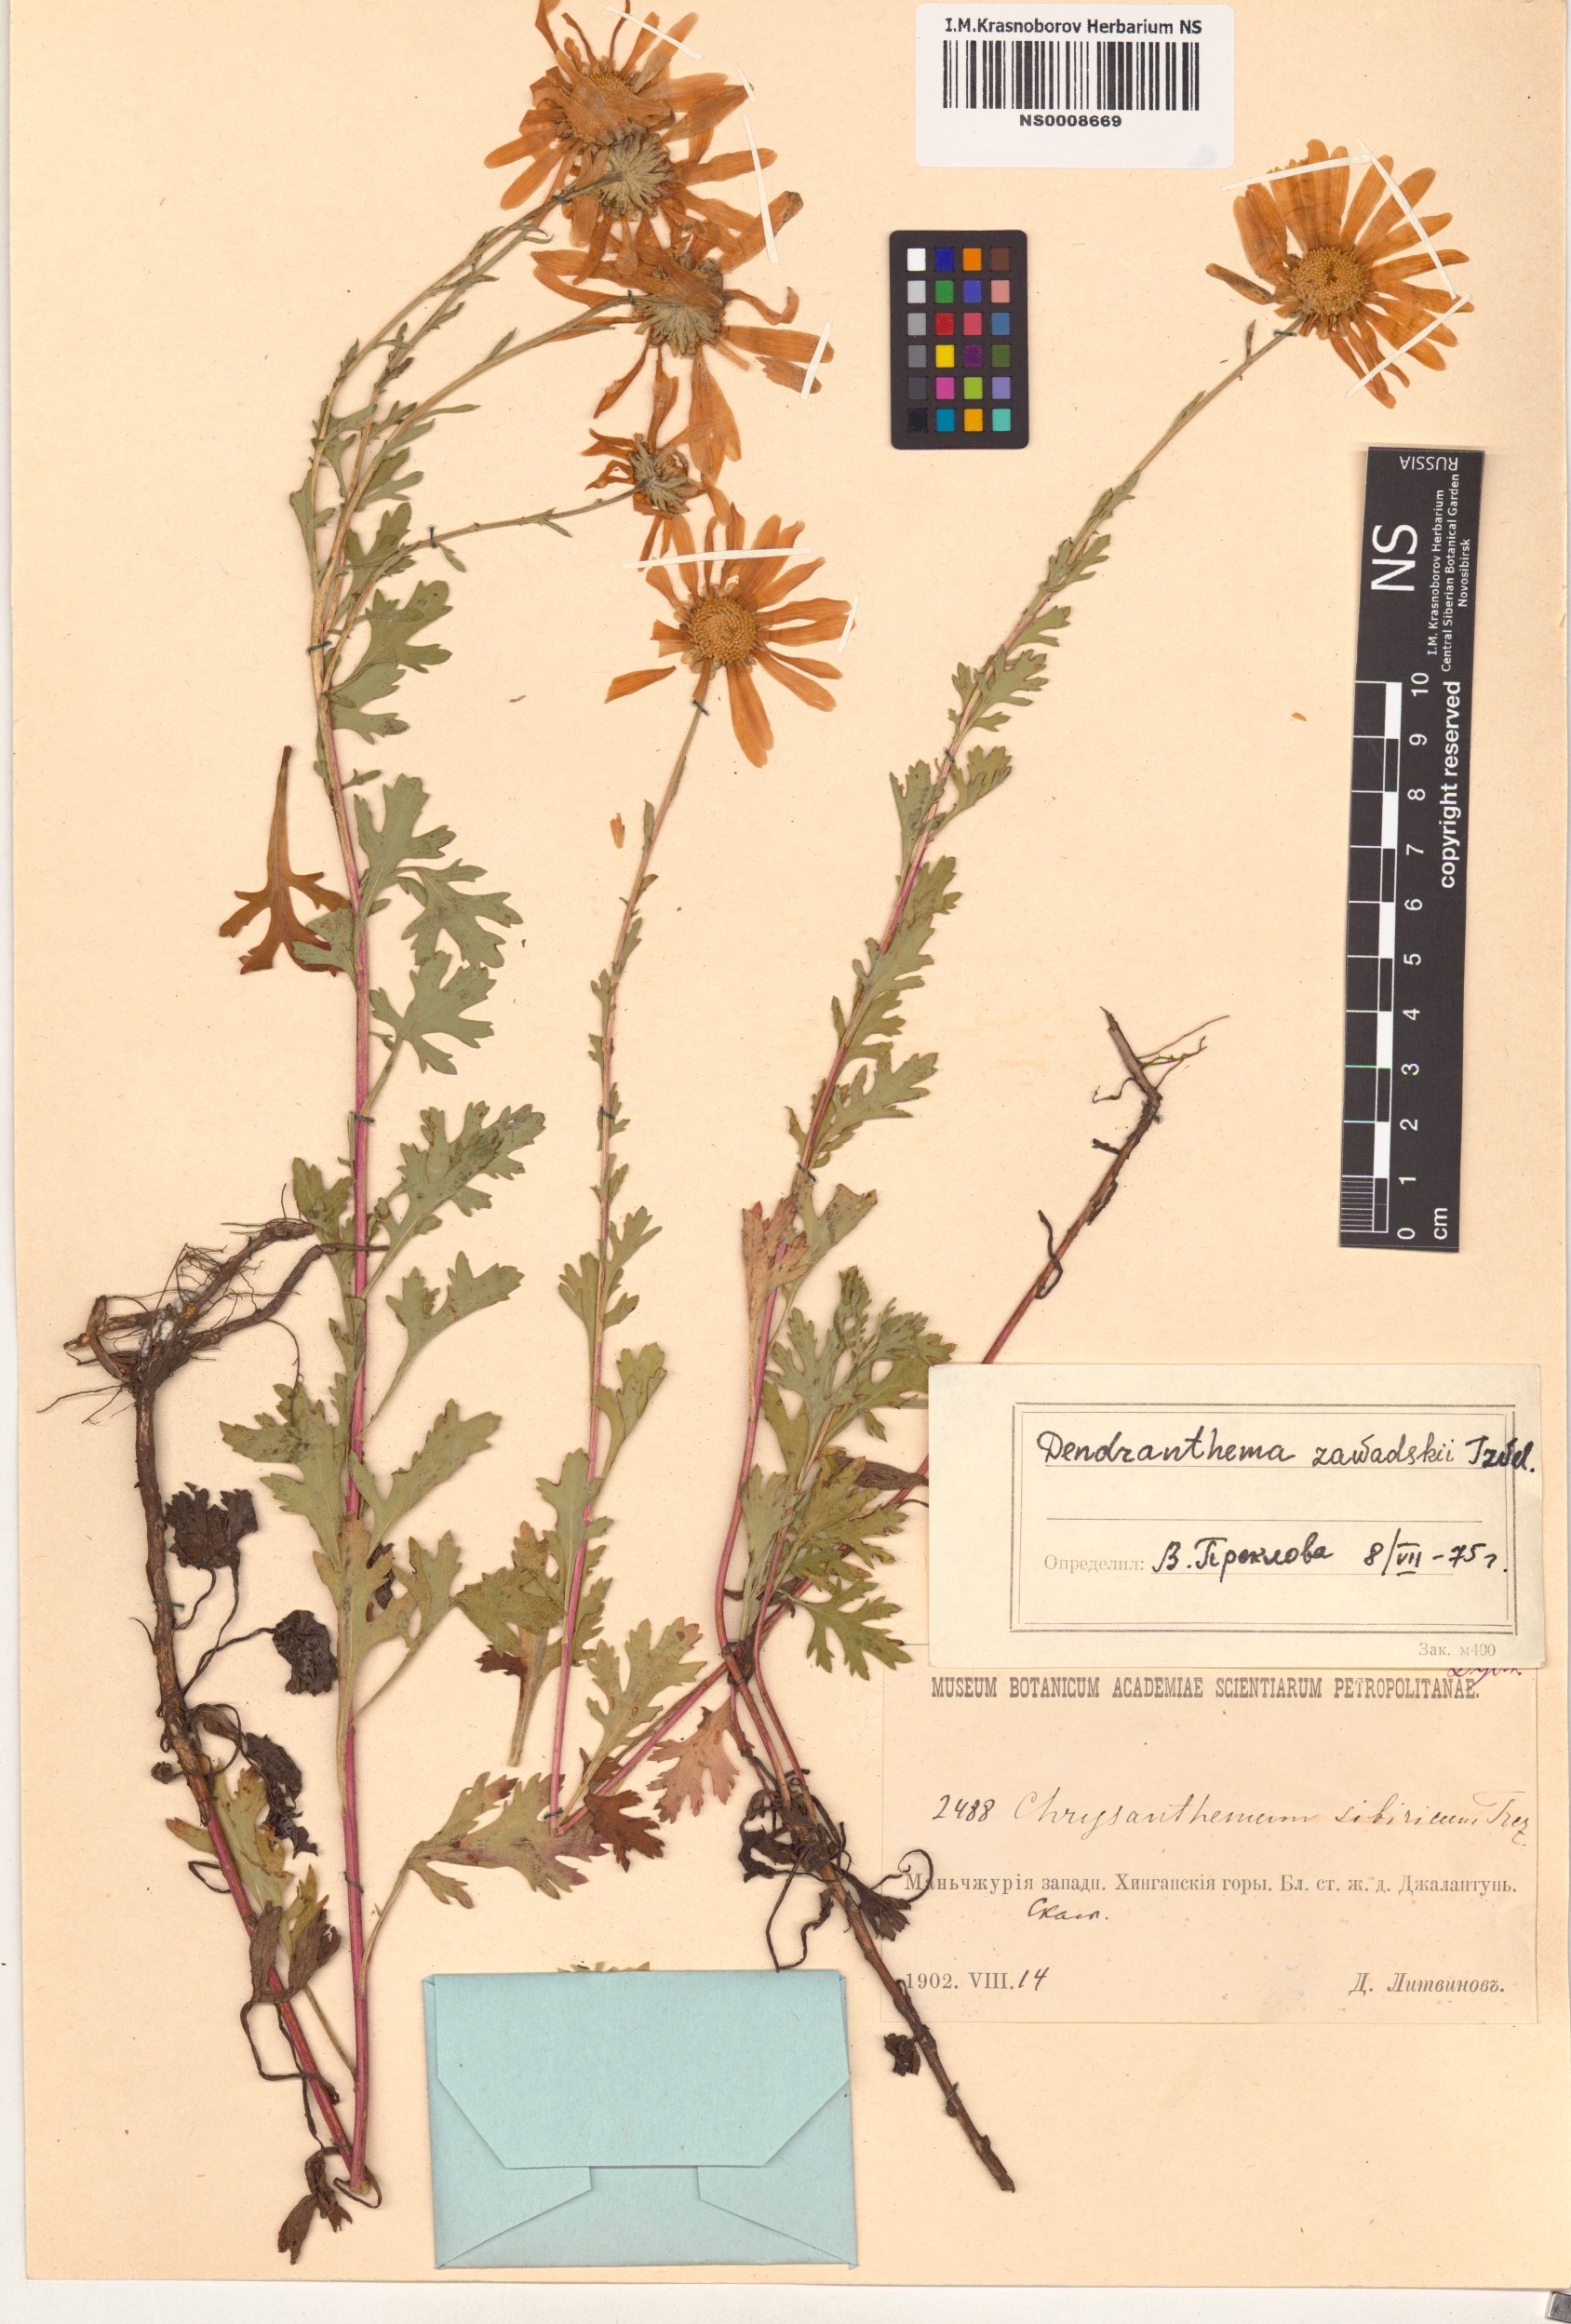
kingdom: Plantae
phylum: Tracheophyta
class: Magnoliopsida
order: Asterales
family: Asteraceae
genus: Chrysanthemum
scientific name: Chrysanthemum zawadzkii
